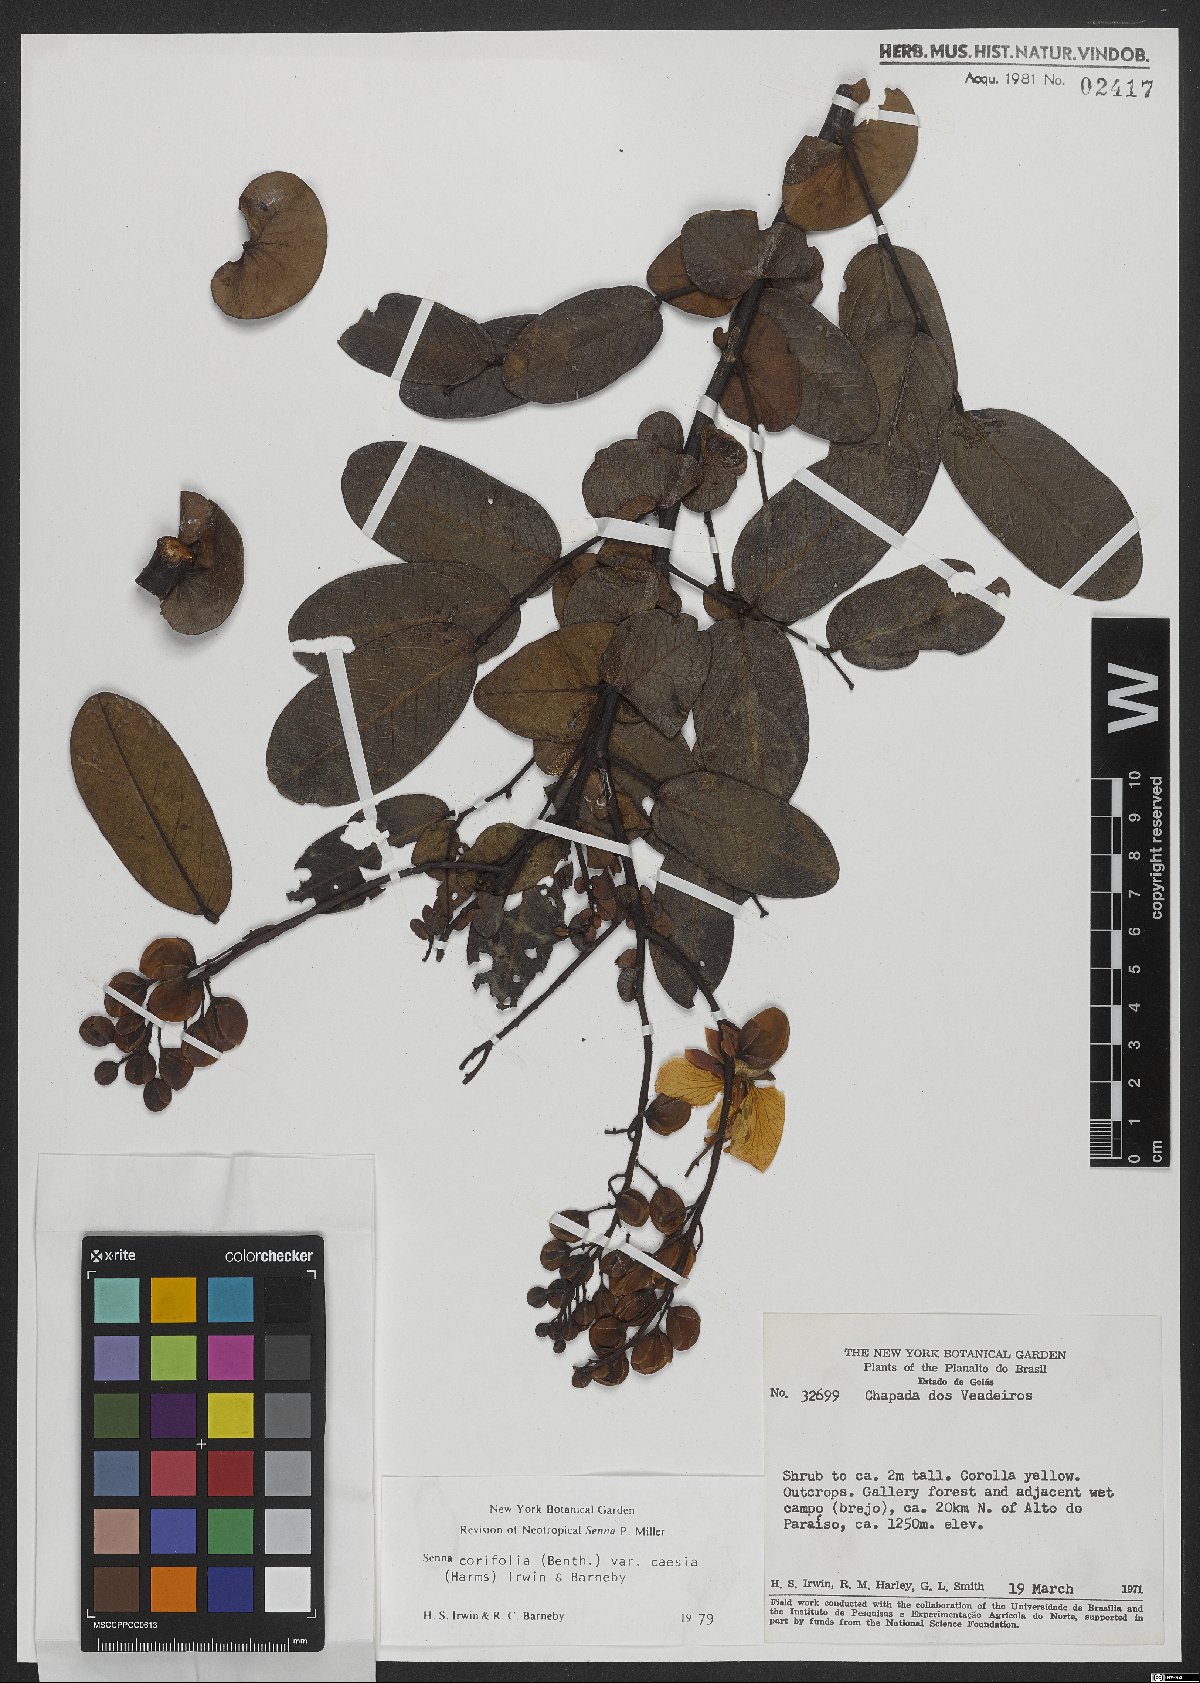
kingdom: Plantae
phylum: Tracheophyta
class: Magnoliopsida
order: Fabales
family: Fabaceae
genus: Senna
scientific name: Senna corifolia
